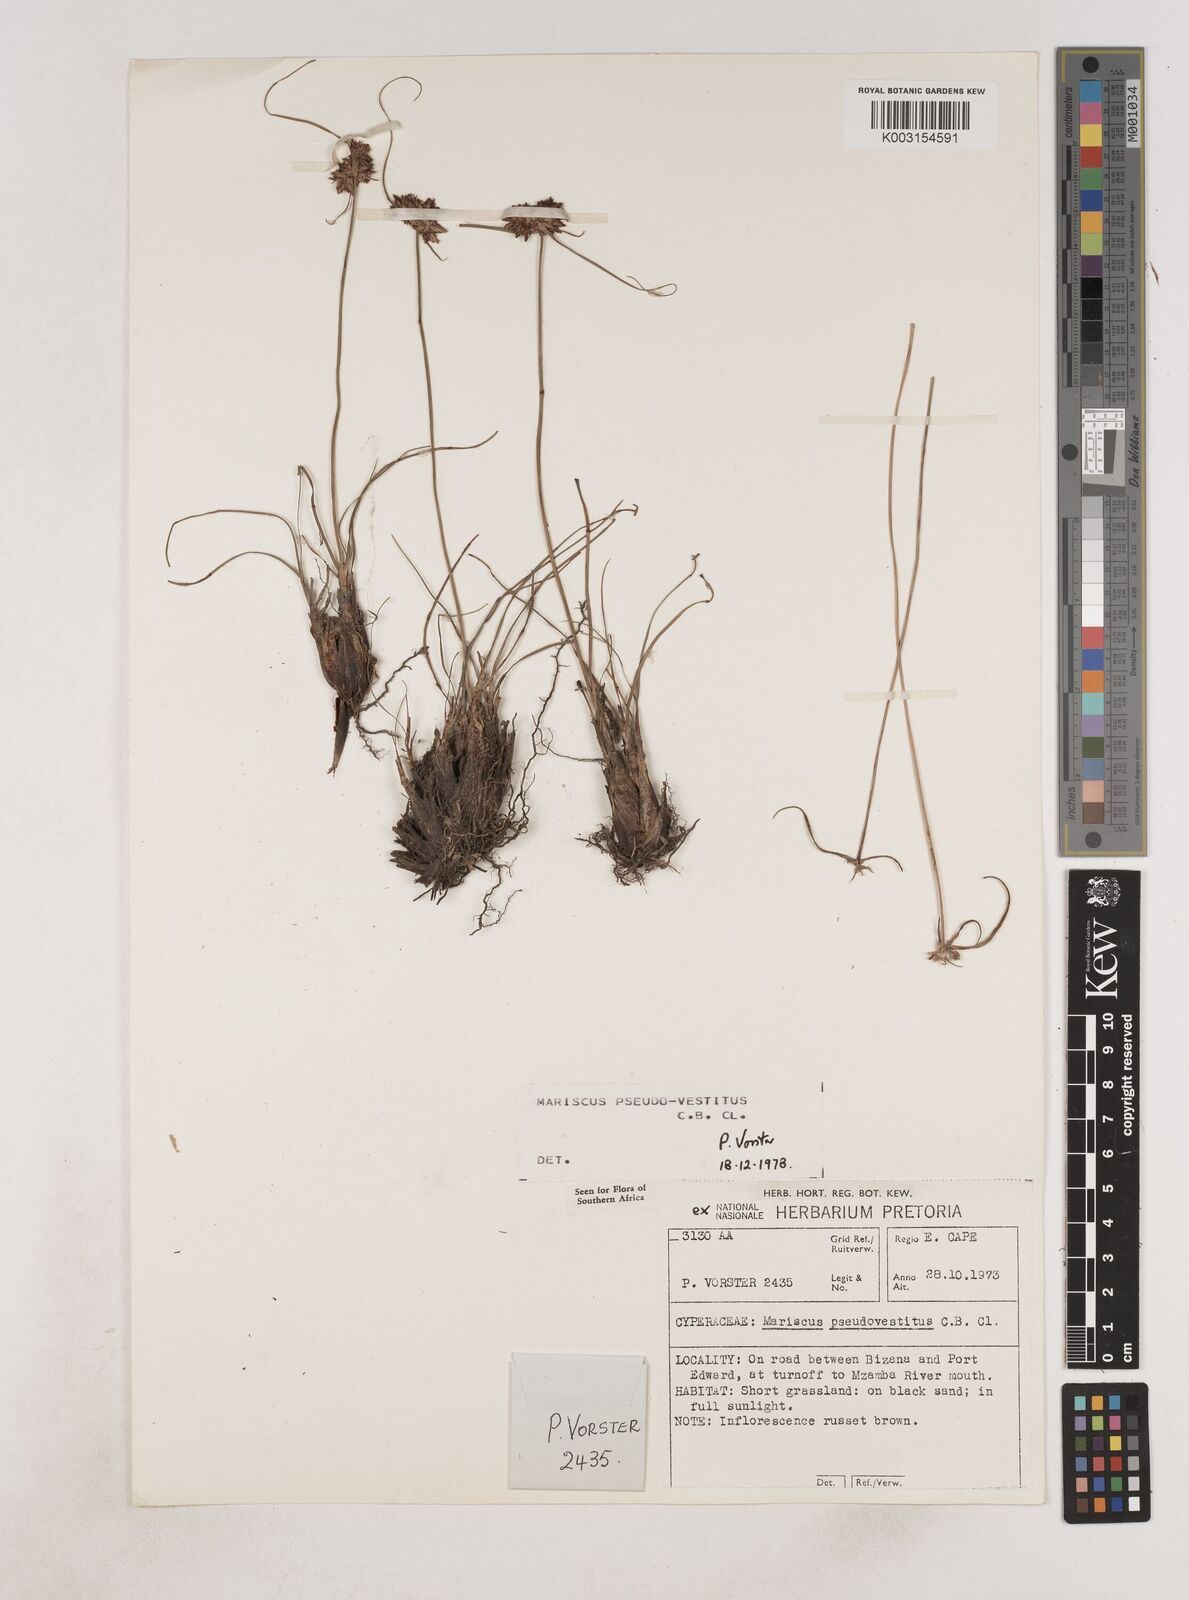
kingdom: Plantae
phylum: Tracheophyta
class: Liliopsida
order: Poales
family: Cyperaceae
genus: Cyperus
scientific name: Cyperus pseudovestitus
